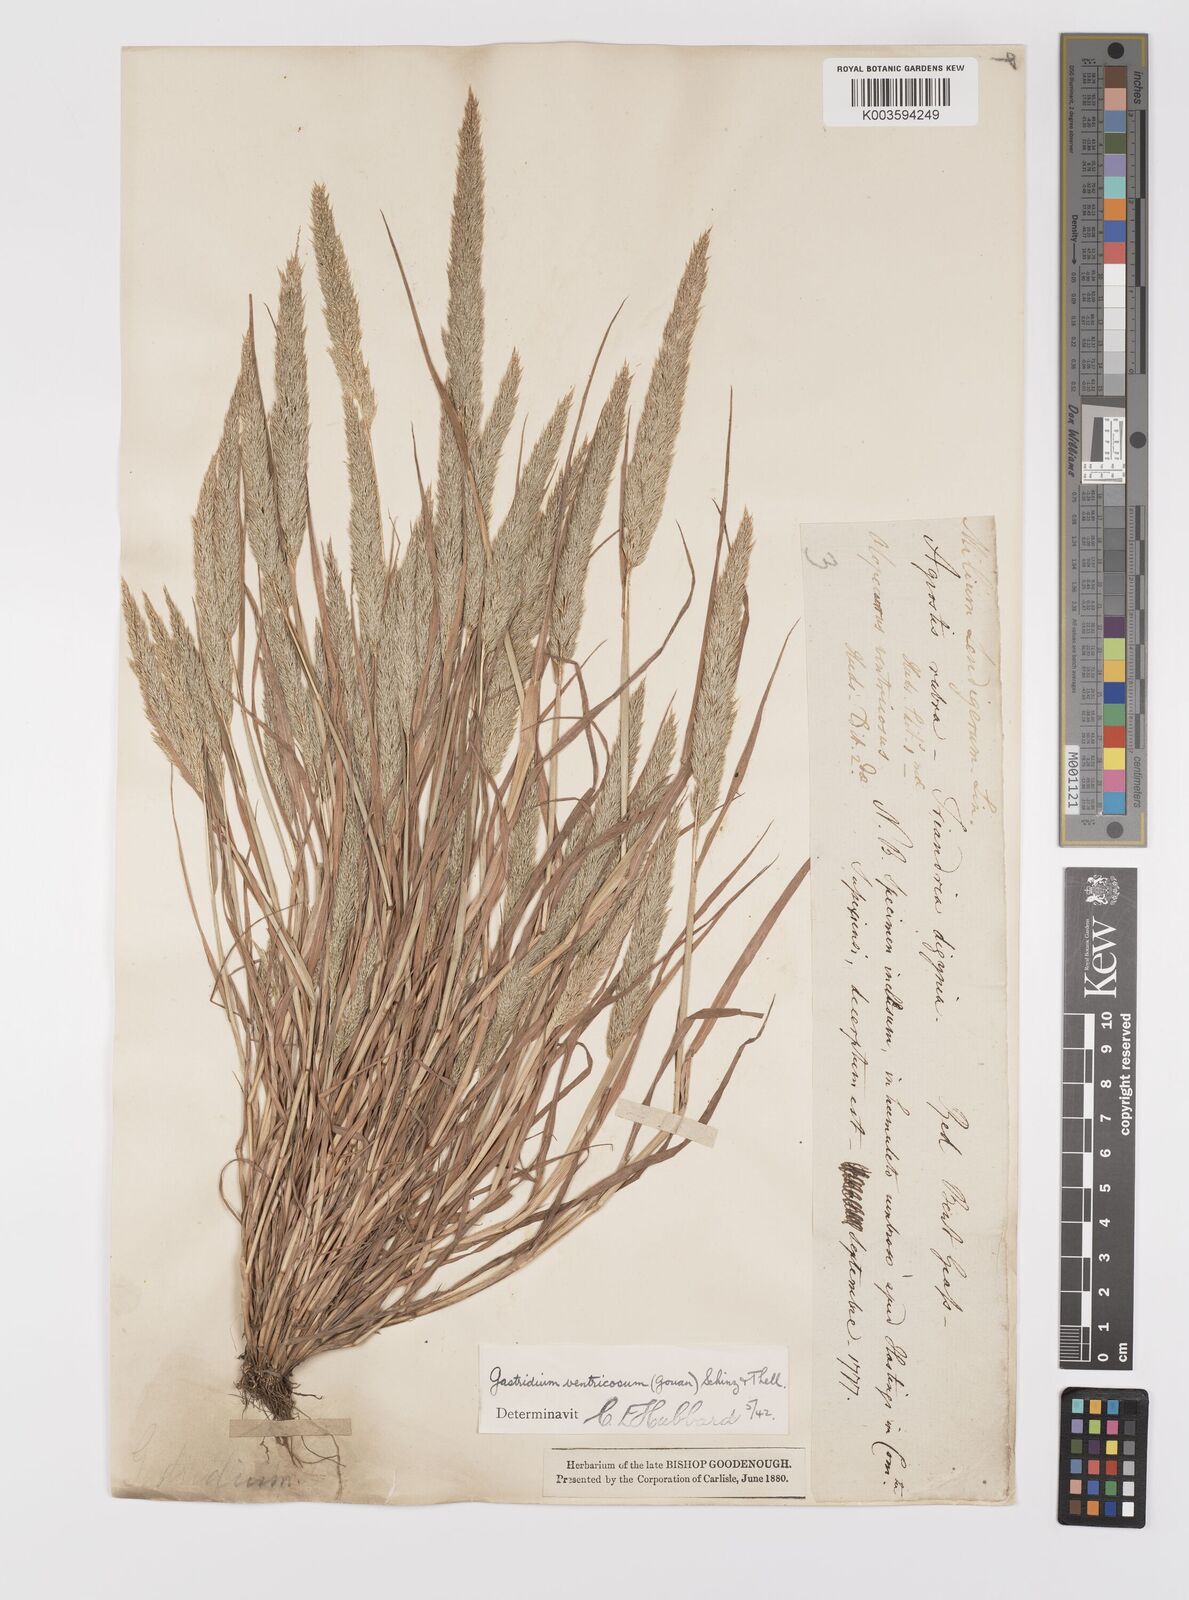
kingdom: Plantae
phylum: Tracheophyta
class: Liliopsida
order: Poales
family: Poaceae
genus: Gastridium
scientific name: Gastridium ventricosum
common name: Nit-grass
